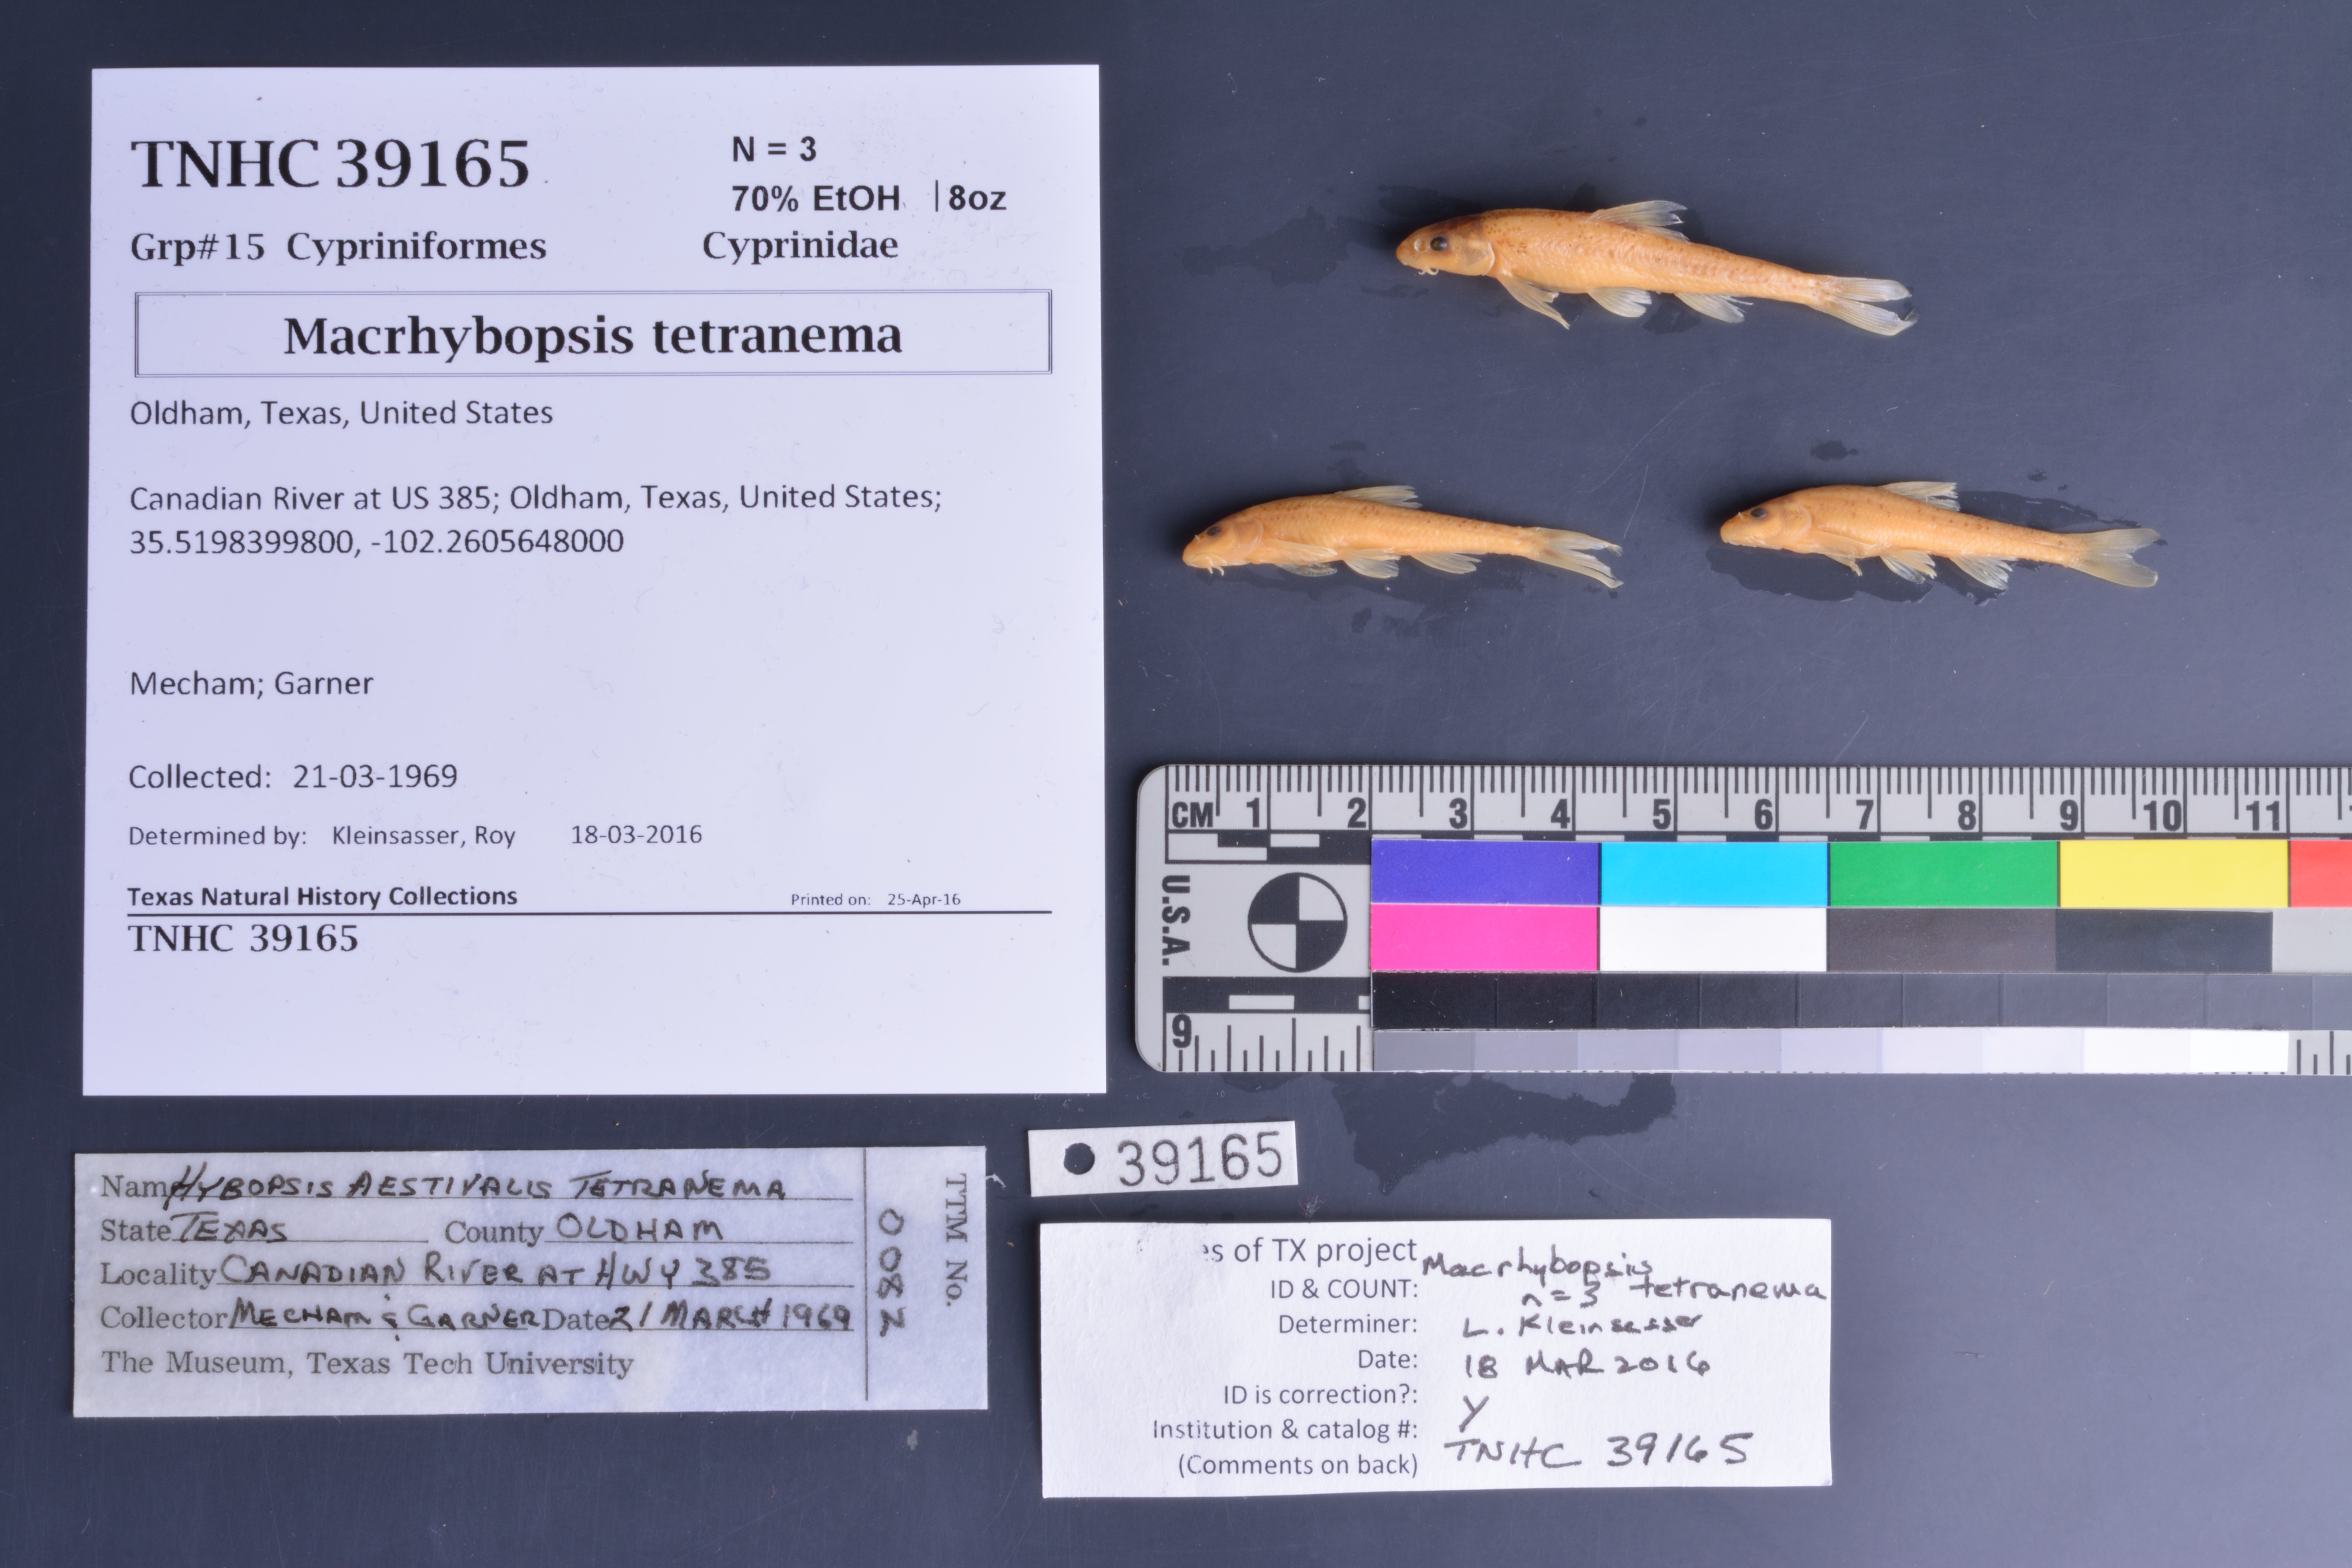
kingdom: Animalia
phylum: Chordata
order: Cypriniformes
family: Cyprinidae
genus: Macrhybopsis
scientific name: Macrhybopsis tetranema
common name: Peppered chub
